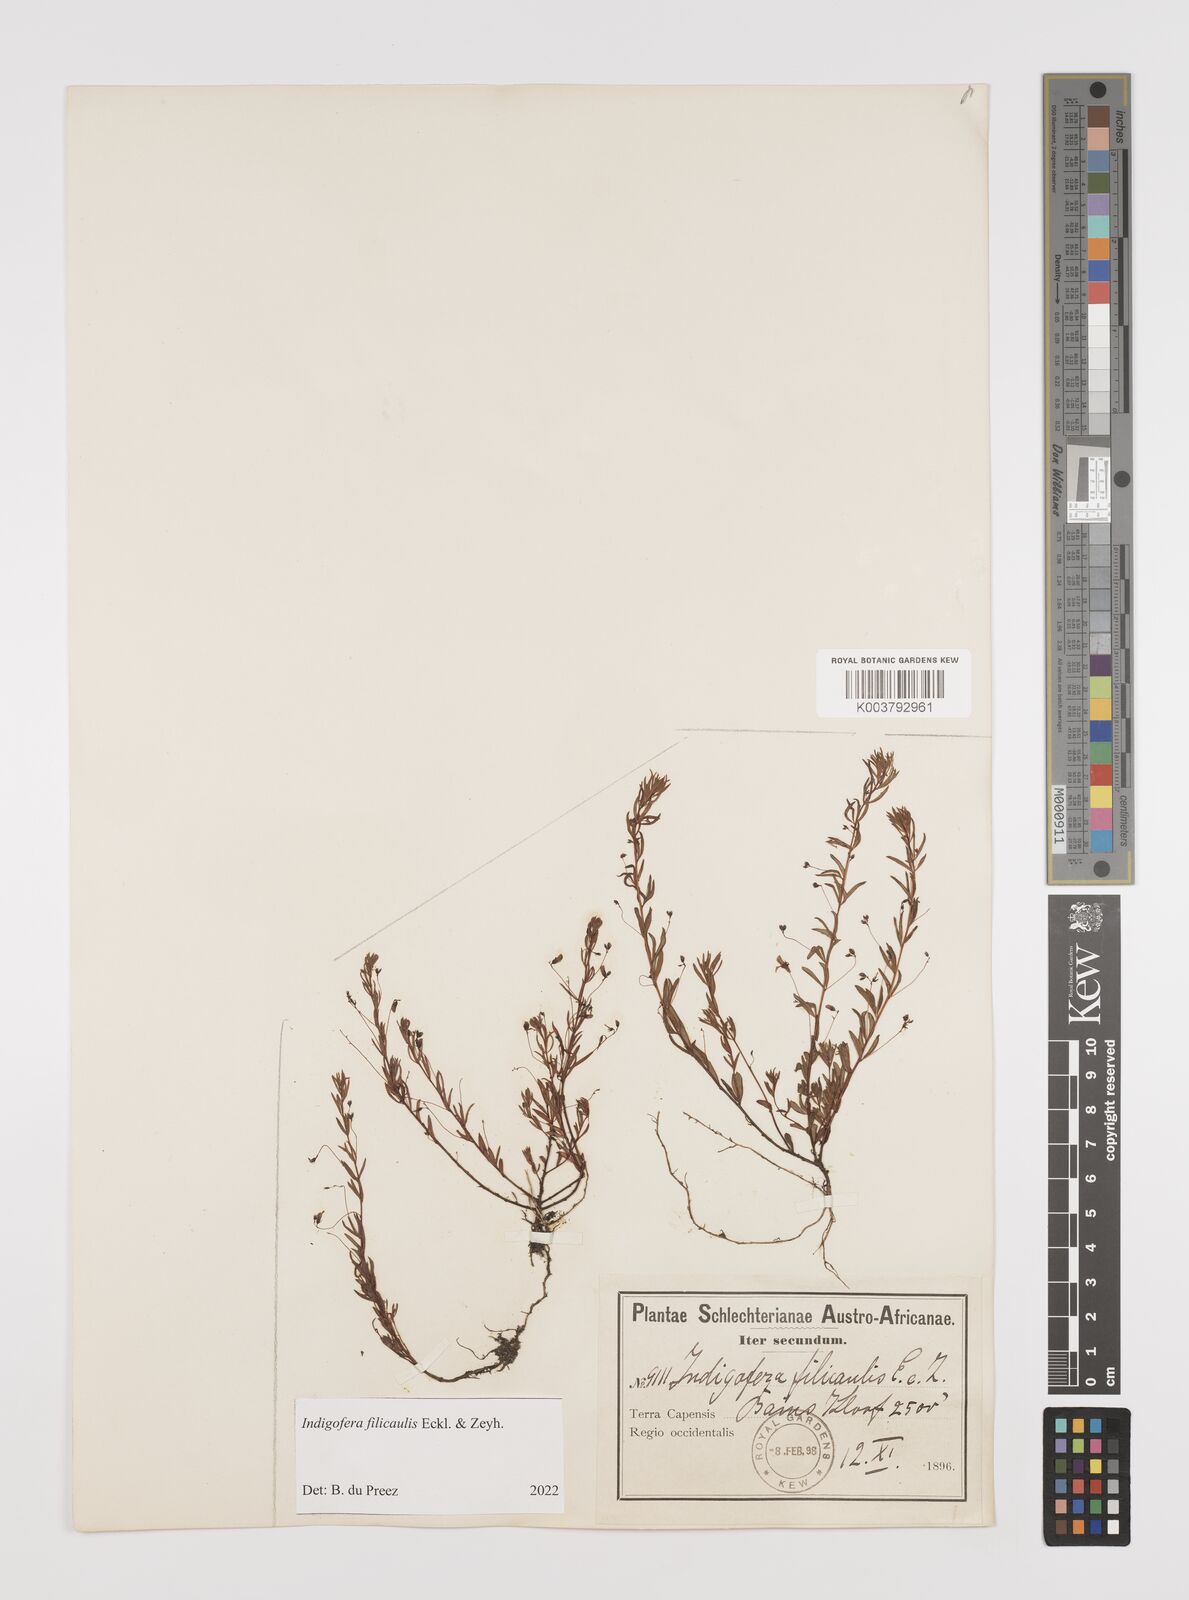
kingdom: Plantae
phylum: Tracheophyta
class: Magnoliopsida
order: Fabales
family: Fabaceae
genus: Indigofera
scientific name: Indigofera filicaulis
